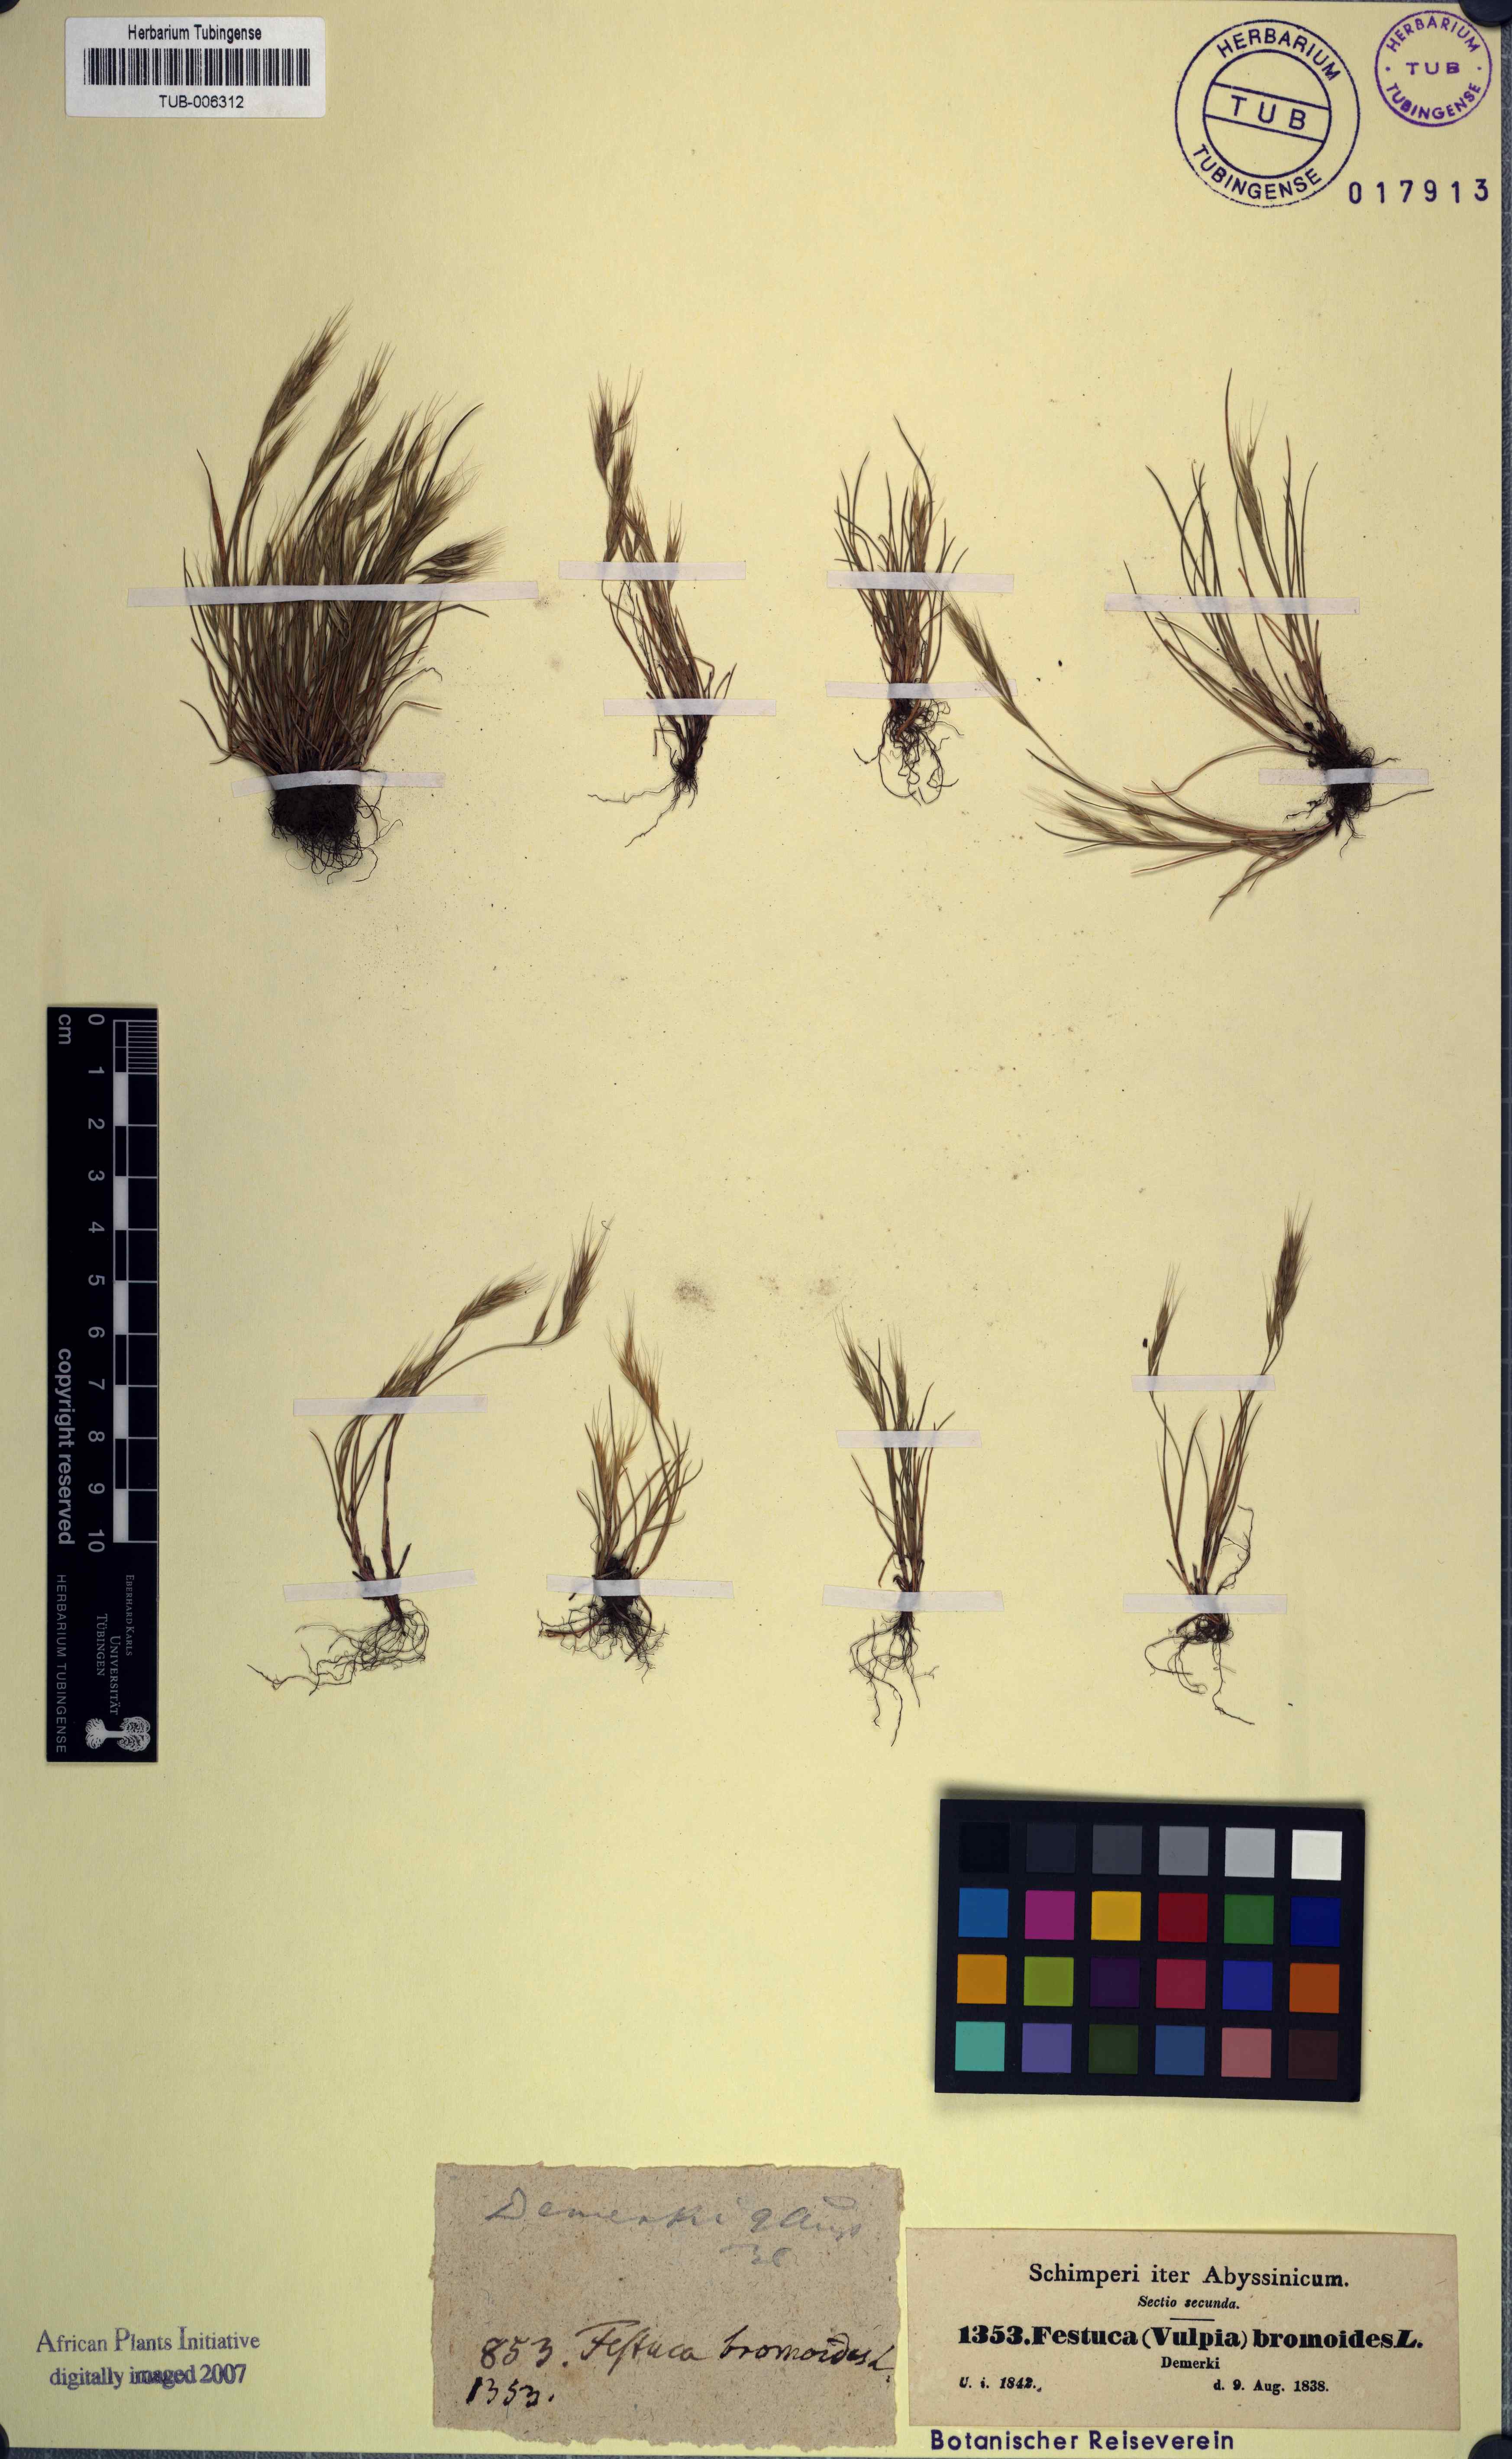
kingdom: Plantae
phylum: Tracheophyta
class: Liliopsida
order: Poales
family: Poaceae
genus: Festuca
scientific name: Festuca bromoides
